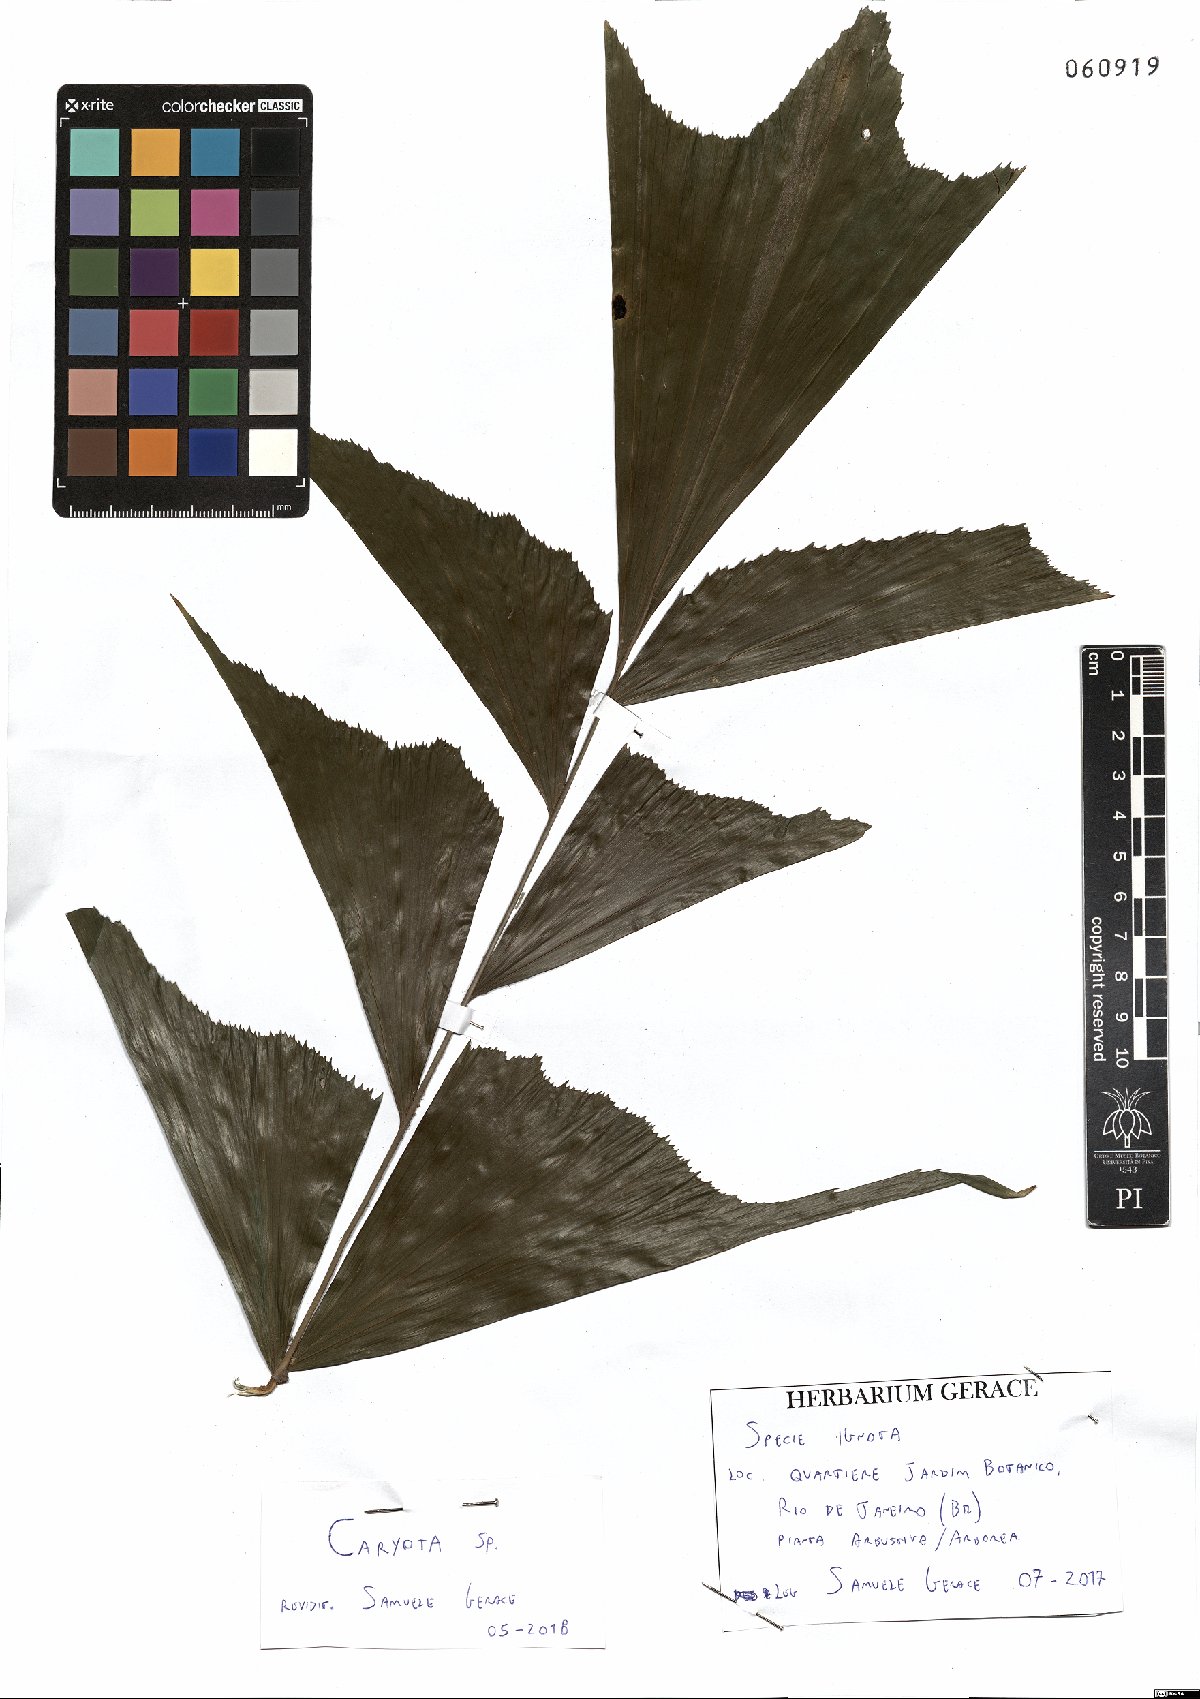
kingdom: Plantae
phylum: Tracheophyta
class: Liliopsida
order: Arecales
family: Arecaceae
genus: Caryota
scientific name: Caryota
